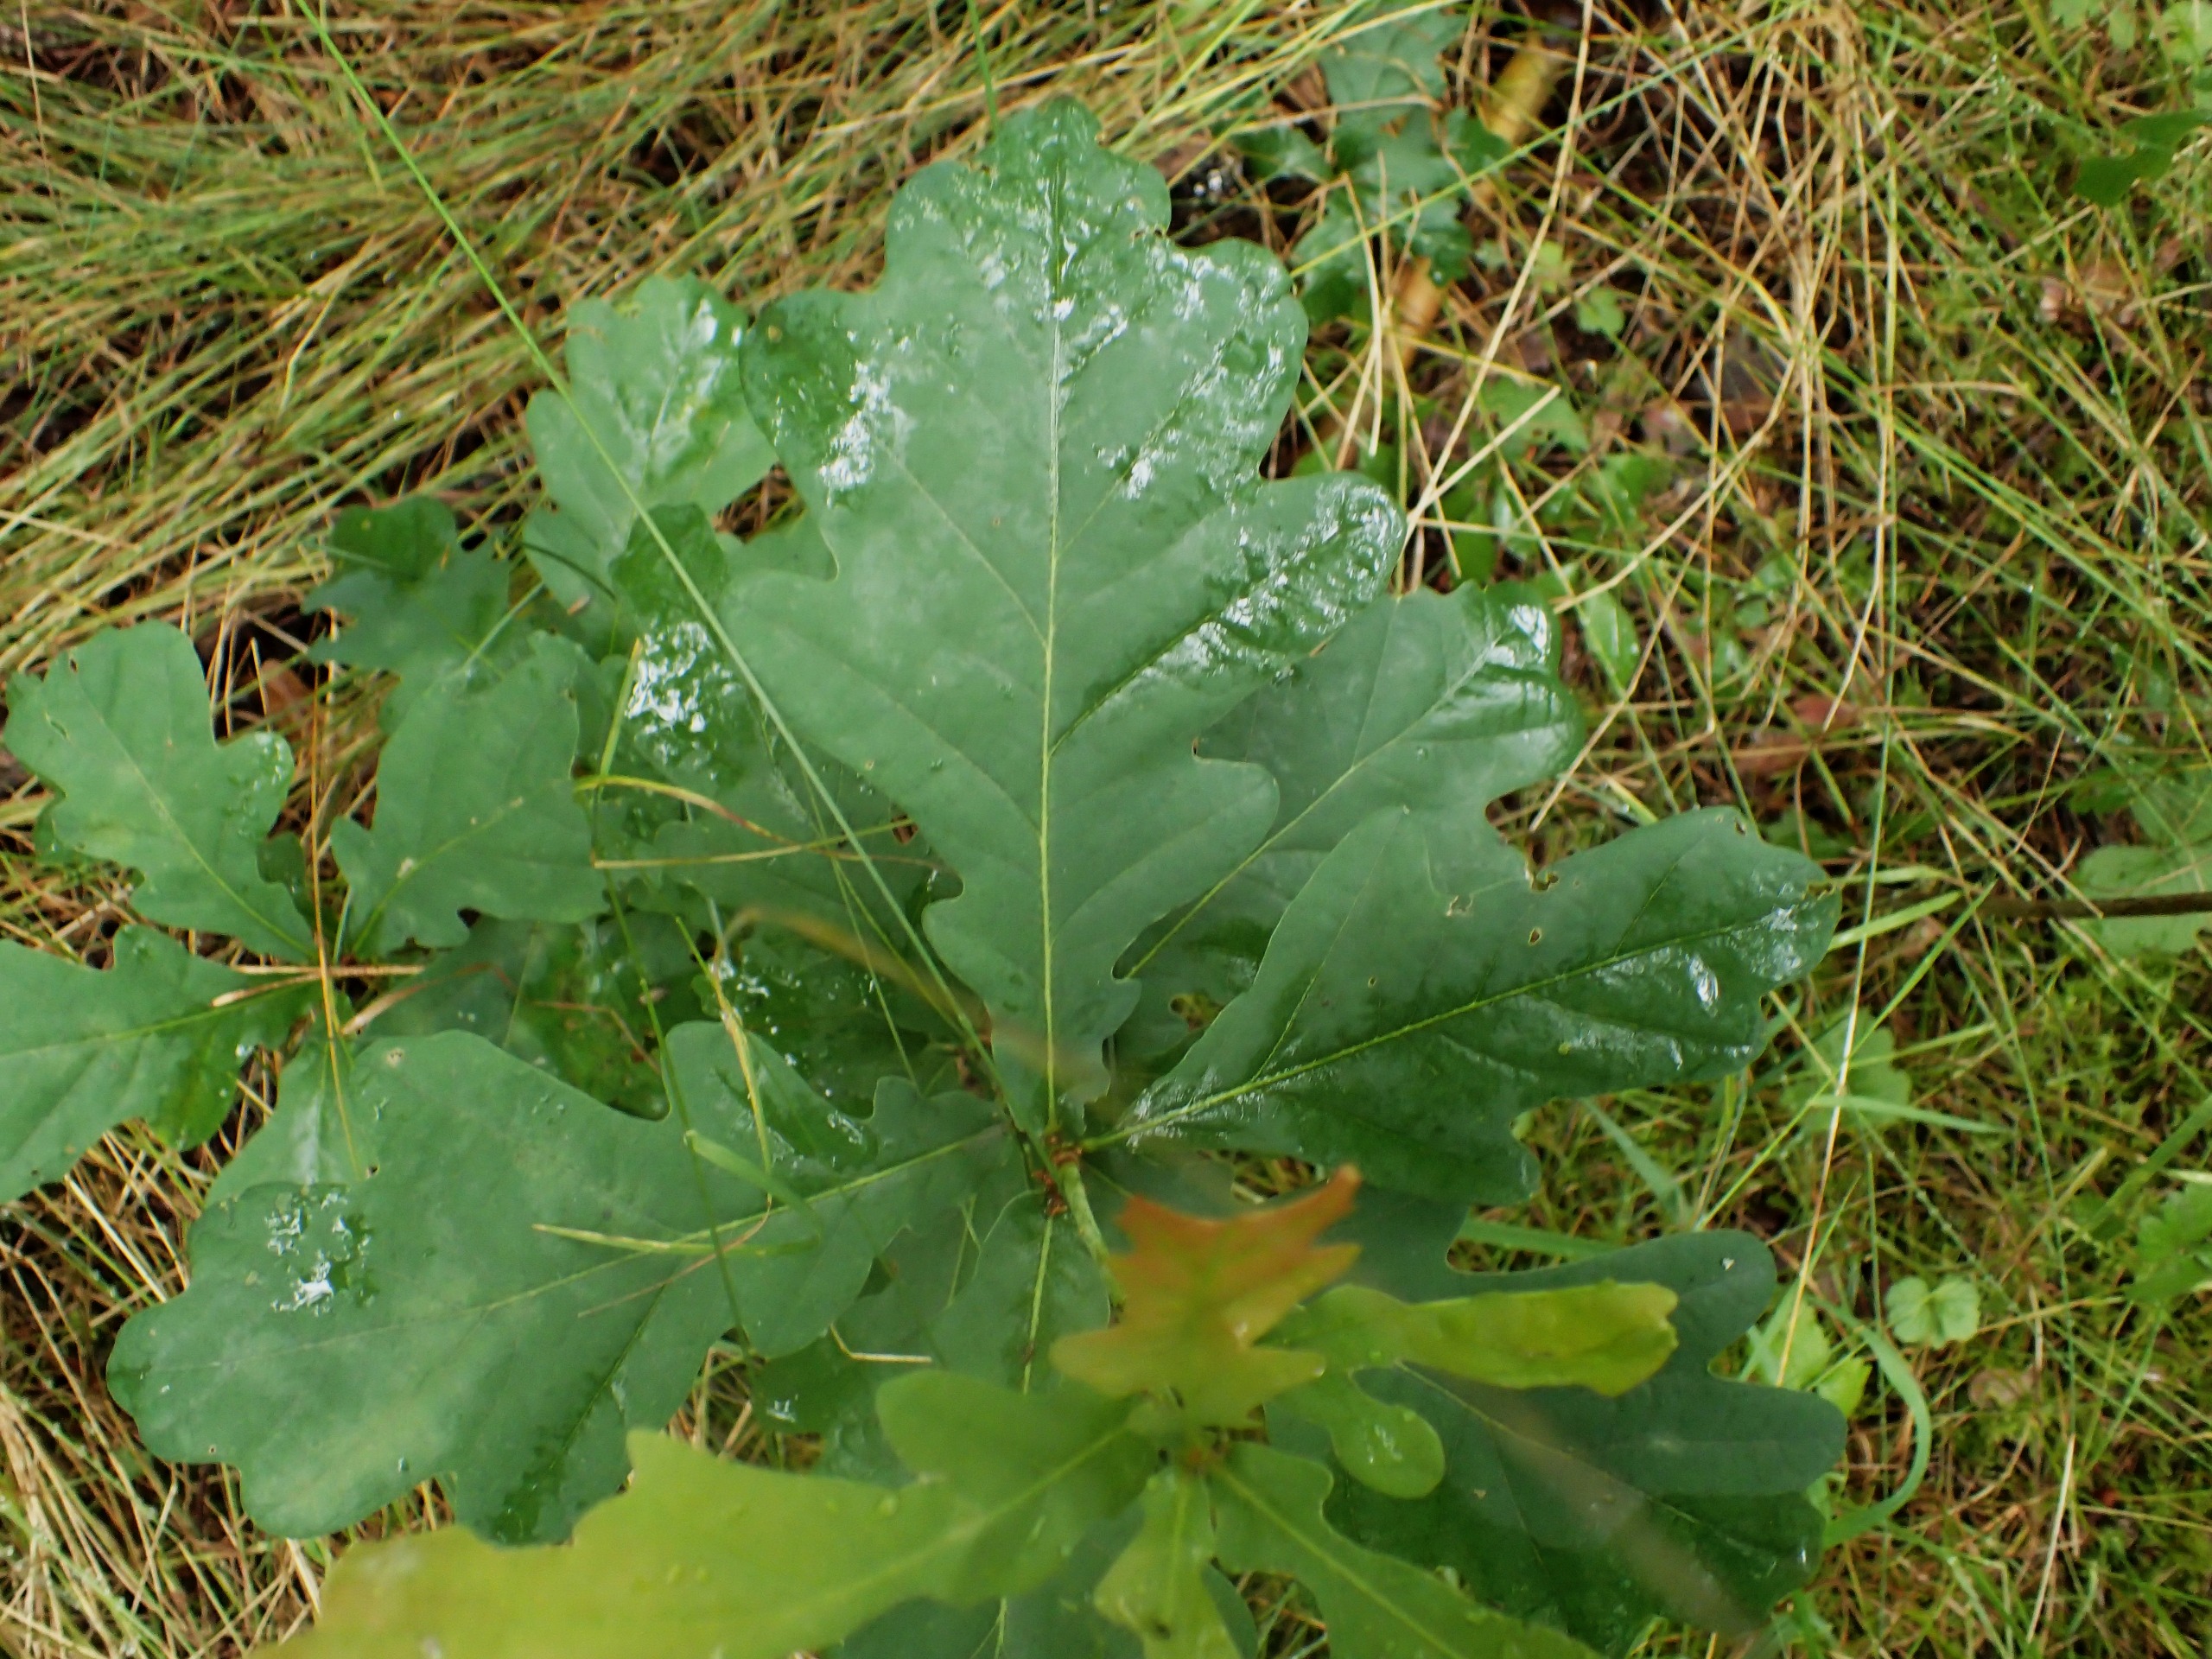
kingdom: Plantae
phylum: Tracheophyta
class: Magnoliopsida
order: Fagales
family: Fagaceae
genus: Quercus
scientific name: Quercus robur
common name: Stilk-eg/almindelig eg
